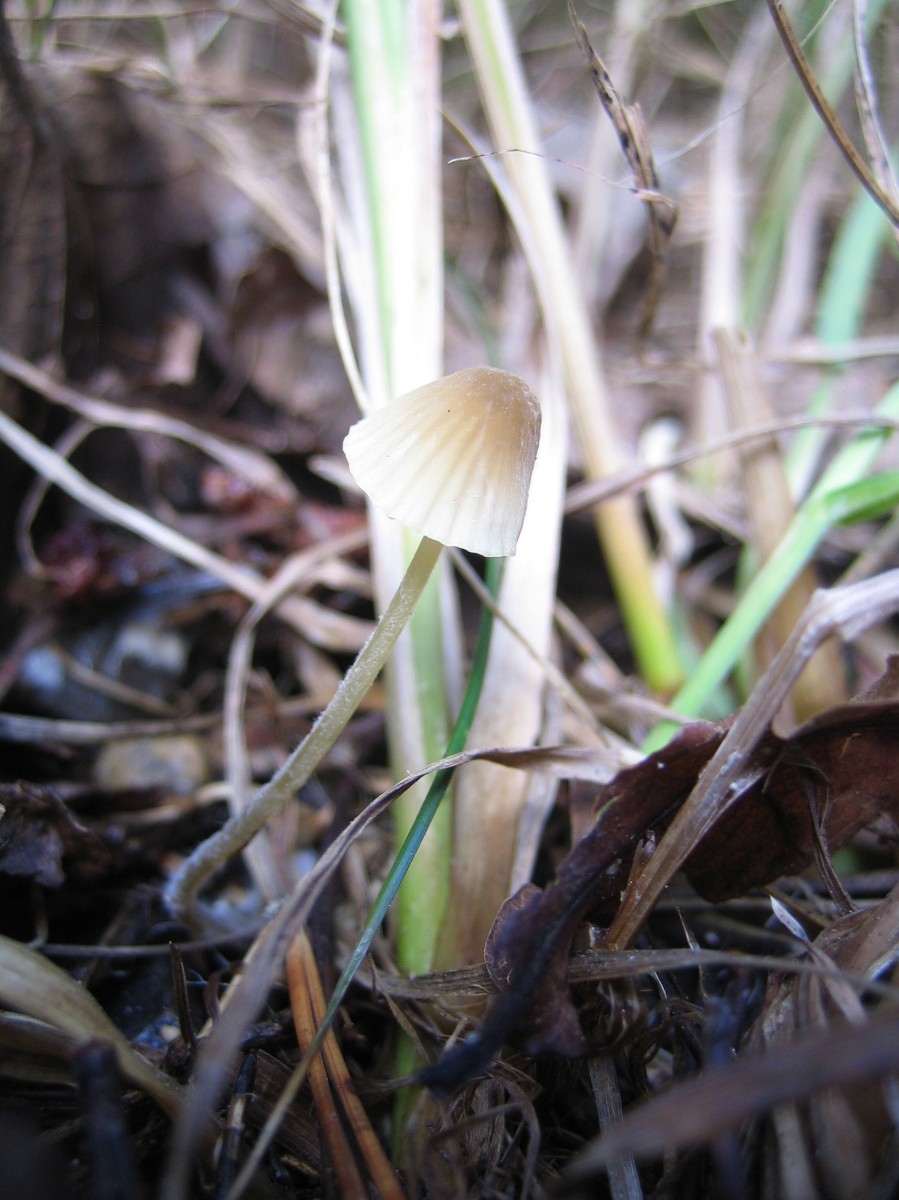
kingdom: Fungi
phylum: Basidiomycota
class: Agaricomycetes
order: Agaricales
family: Mycenaceae
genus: Mycena
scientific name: Mycena
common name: huesvamp
